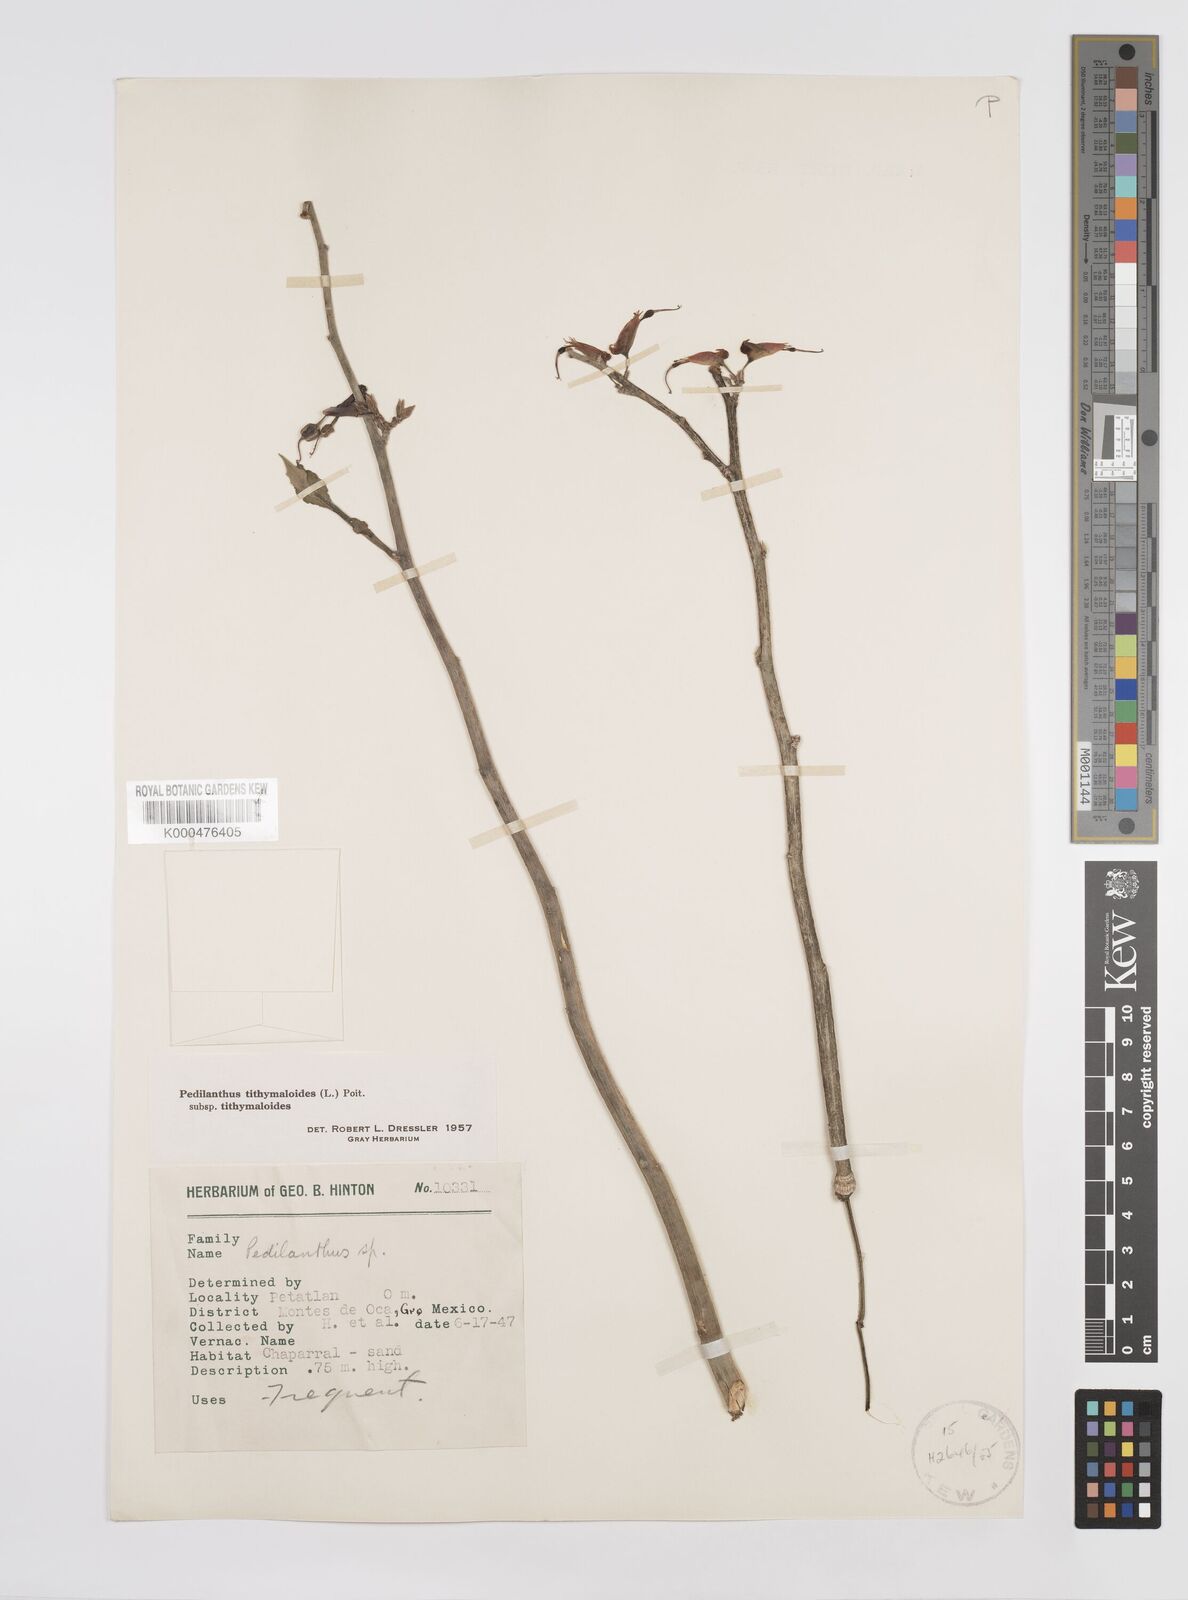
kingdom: Plantae
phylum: Tracheophyta
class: Magnoliopsida
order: Malpighiales
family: Euphorbiaceae
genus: Euphorbia
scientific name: Euphorbia tithymaloides
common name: Slipperplant
